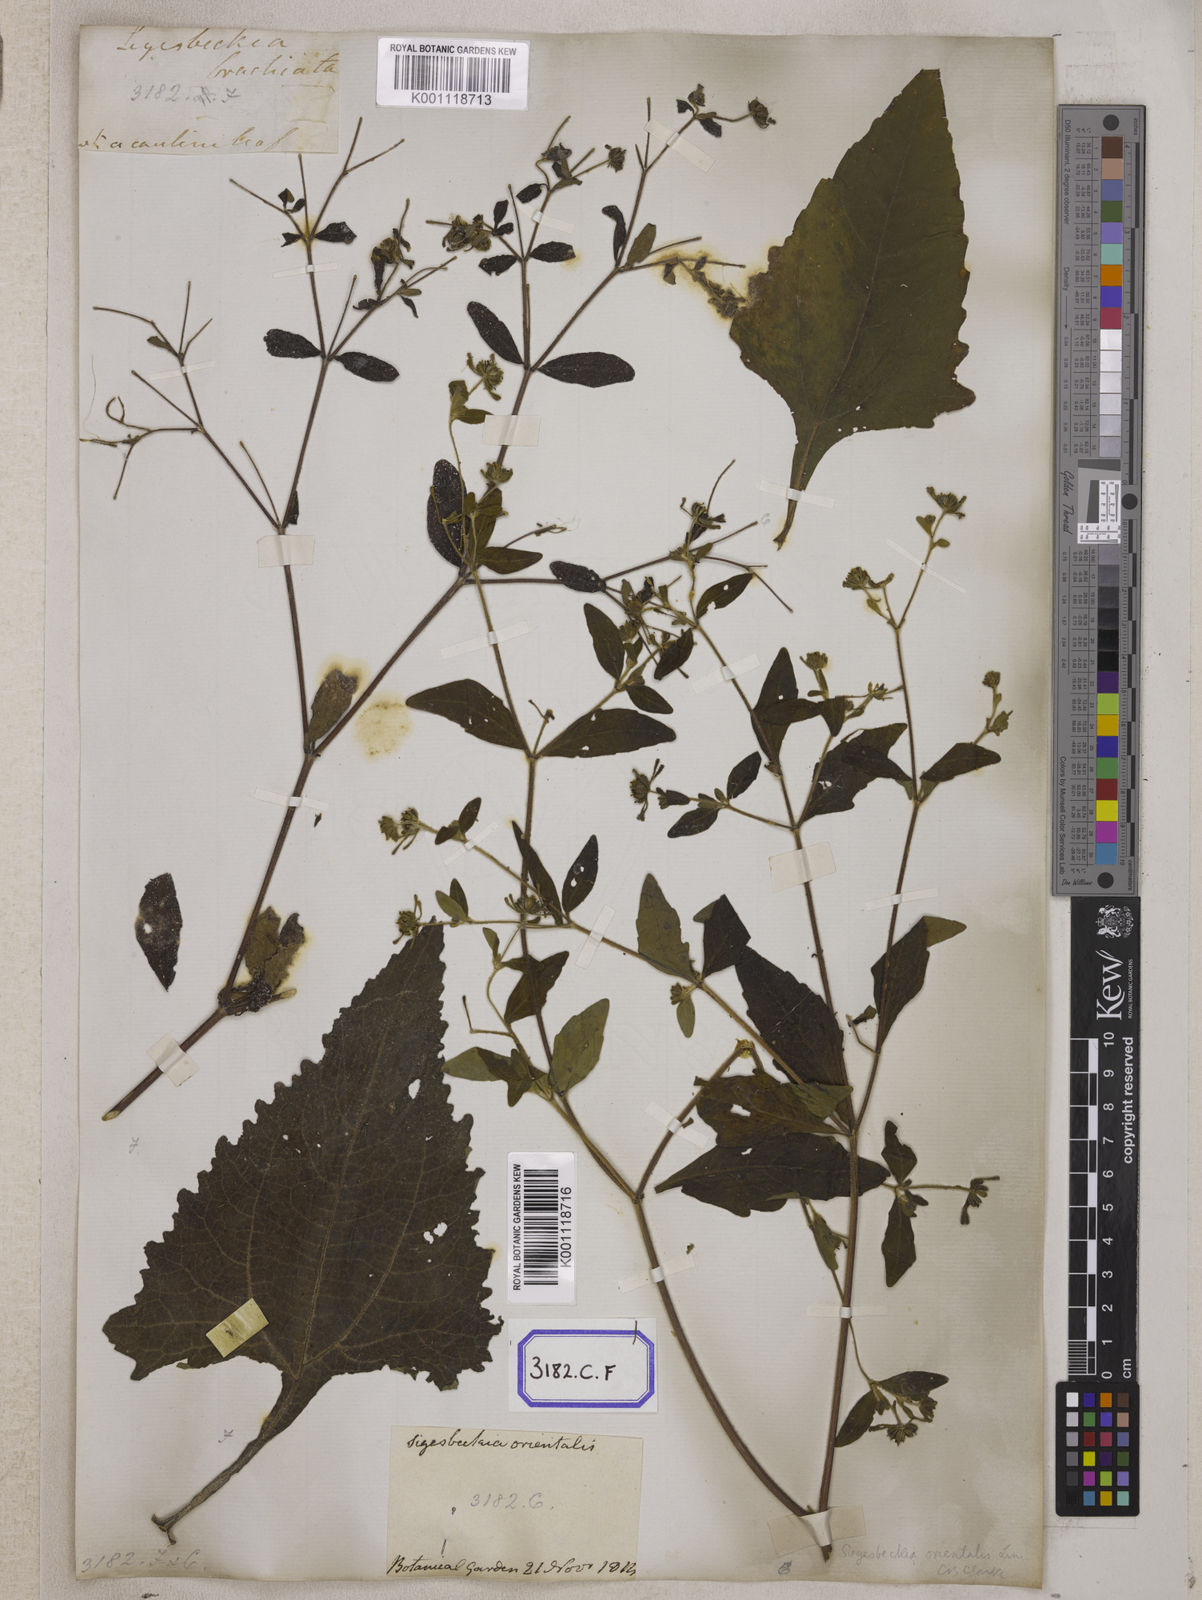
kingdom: Plantae
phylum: Tracheophyta
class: Magnoliopsida
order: Asterales
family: Asteraceae
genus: Sigesbeckia
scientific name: Sigesbeckia orientalis
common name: Eastern st paul's-wort
